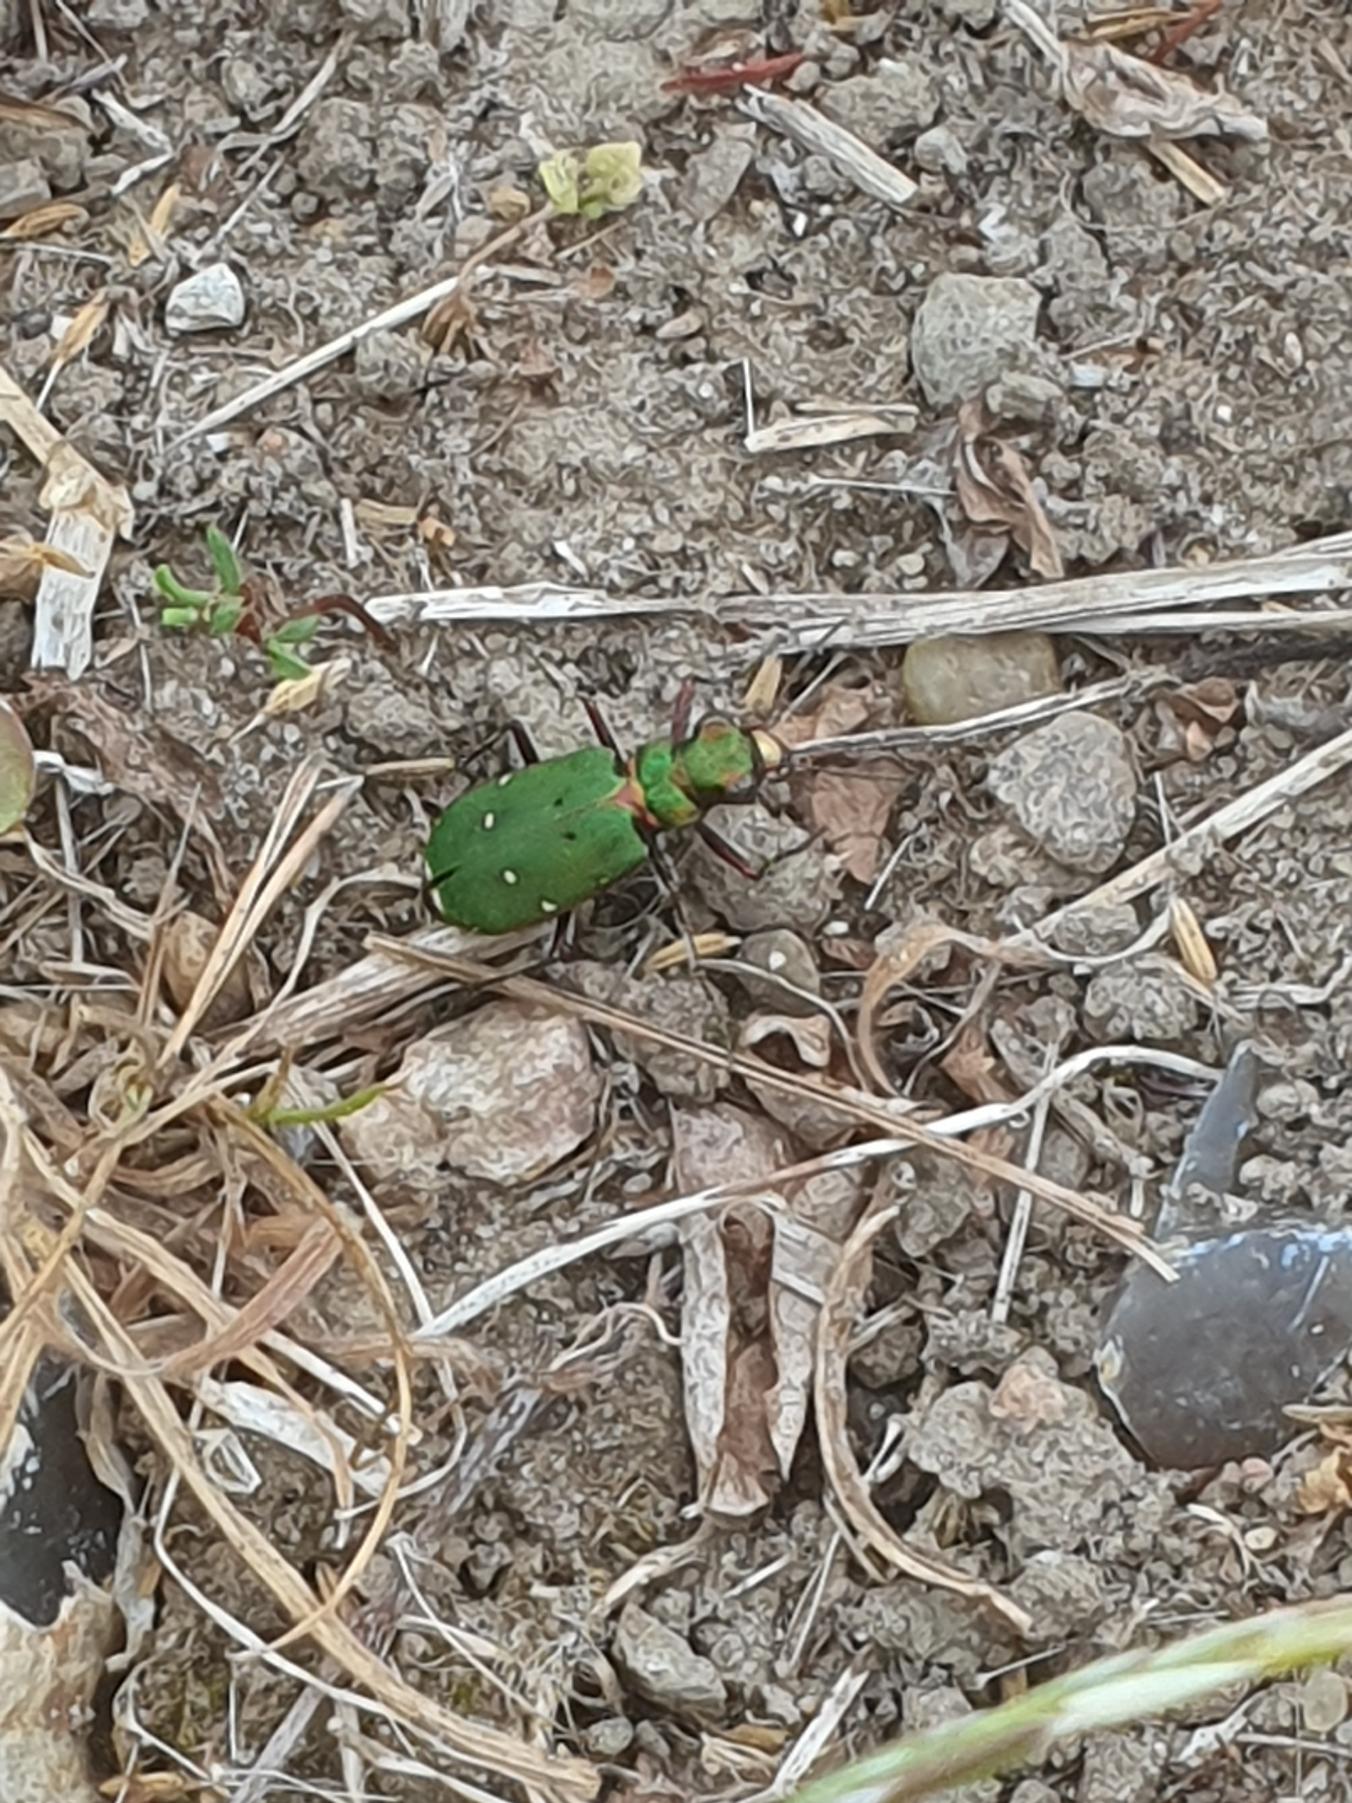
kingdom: Animalia
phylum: Arthropoda
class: Insecta
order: Coleoptera
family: Carabidae
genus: Cicindela
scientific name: Cicindela campestris
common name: Grøn sandspringer
